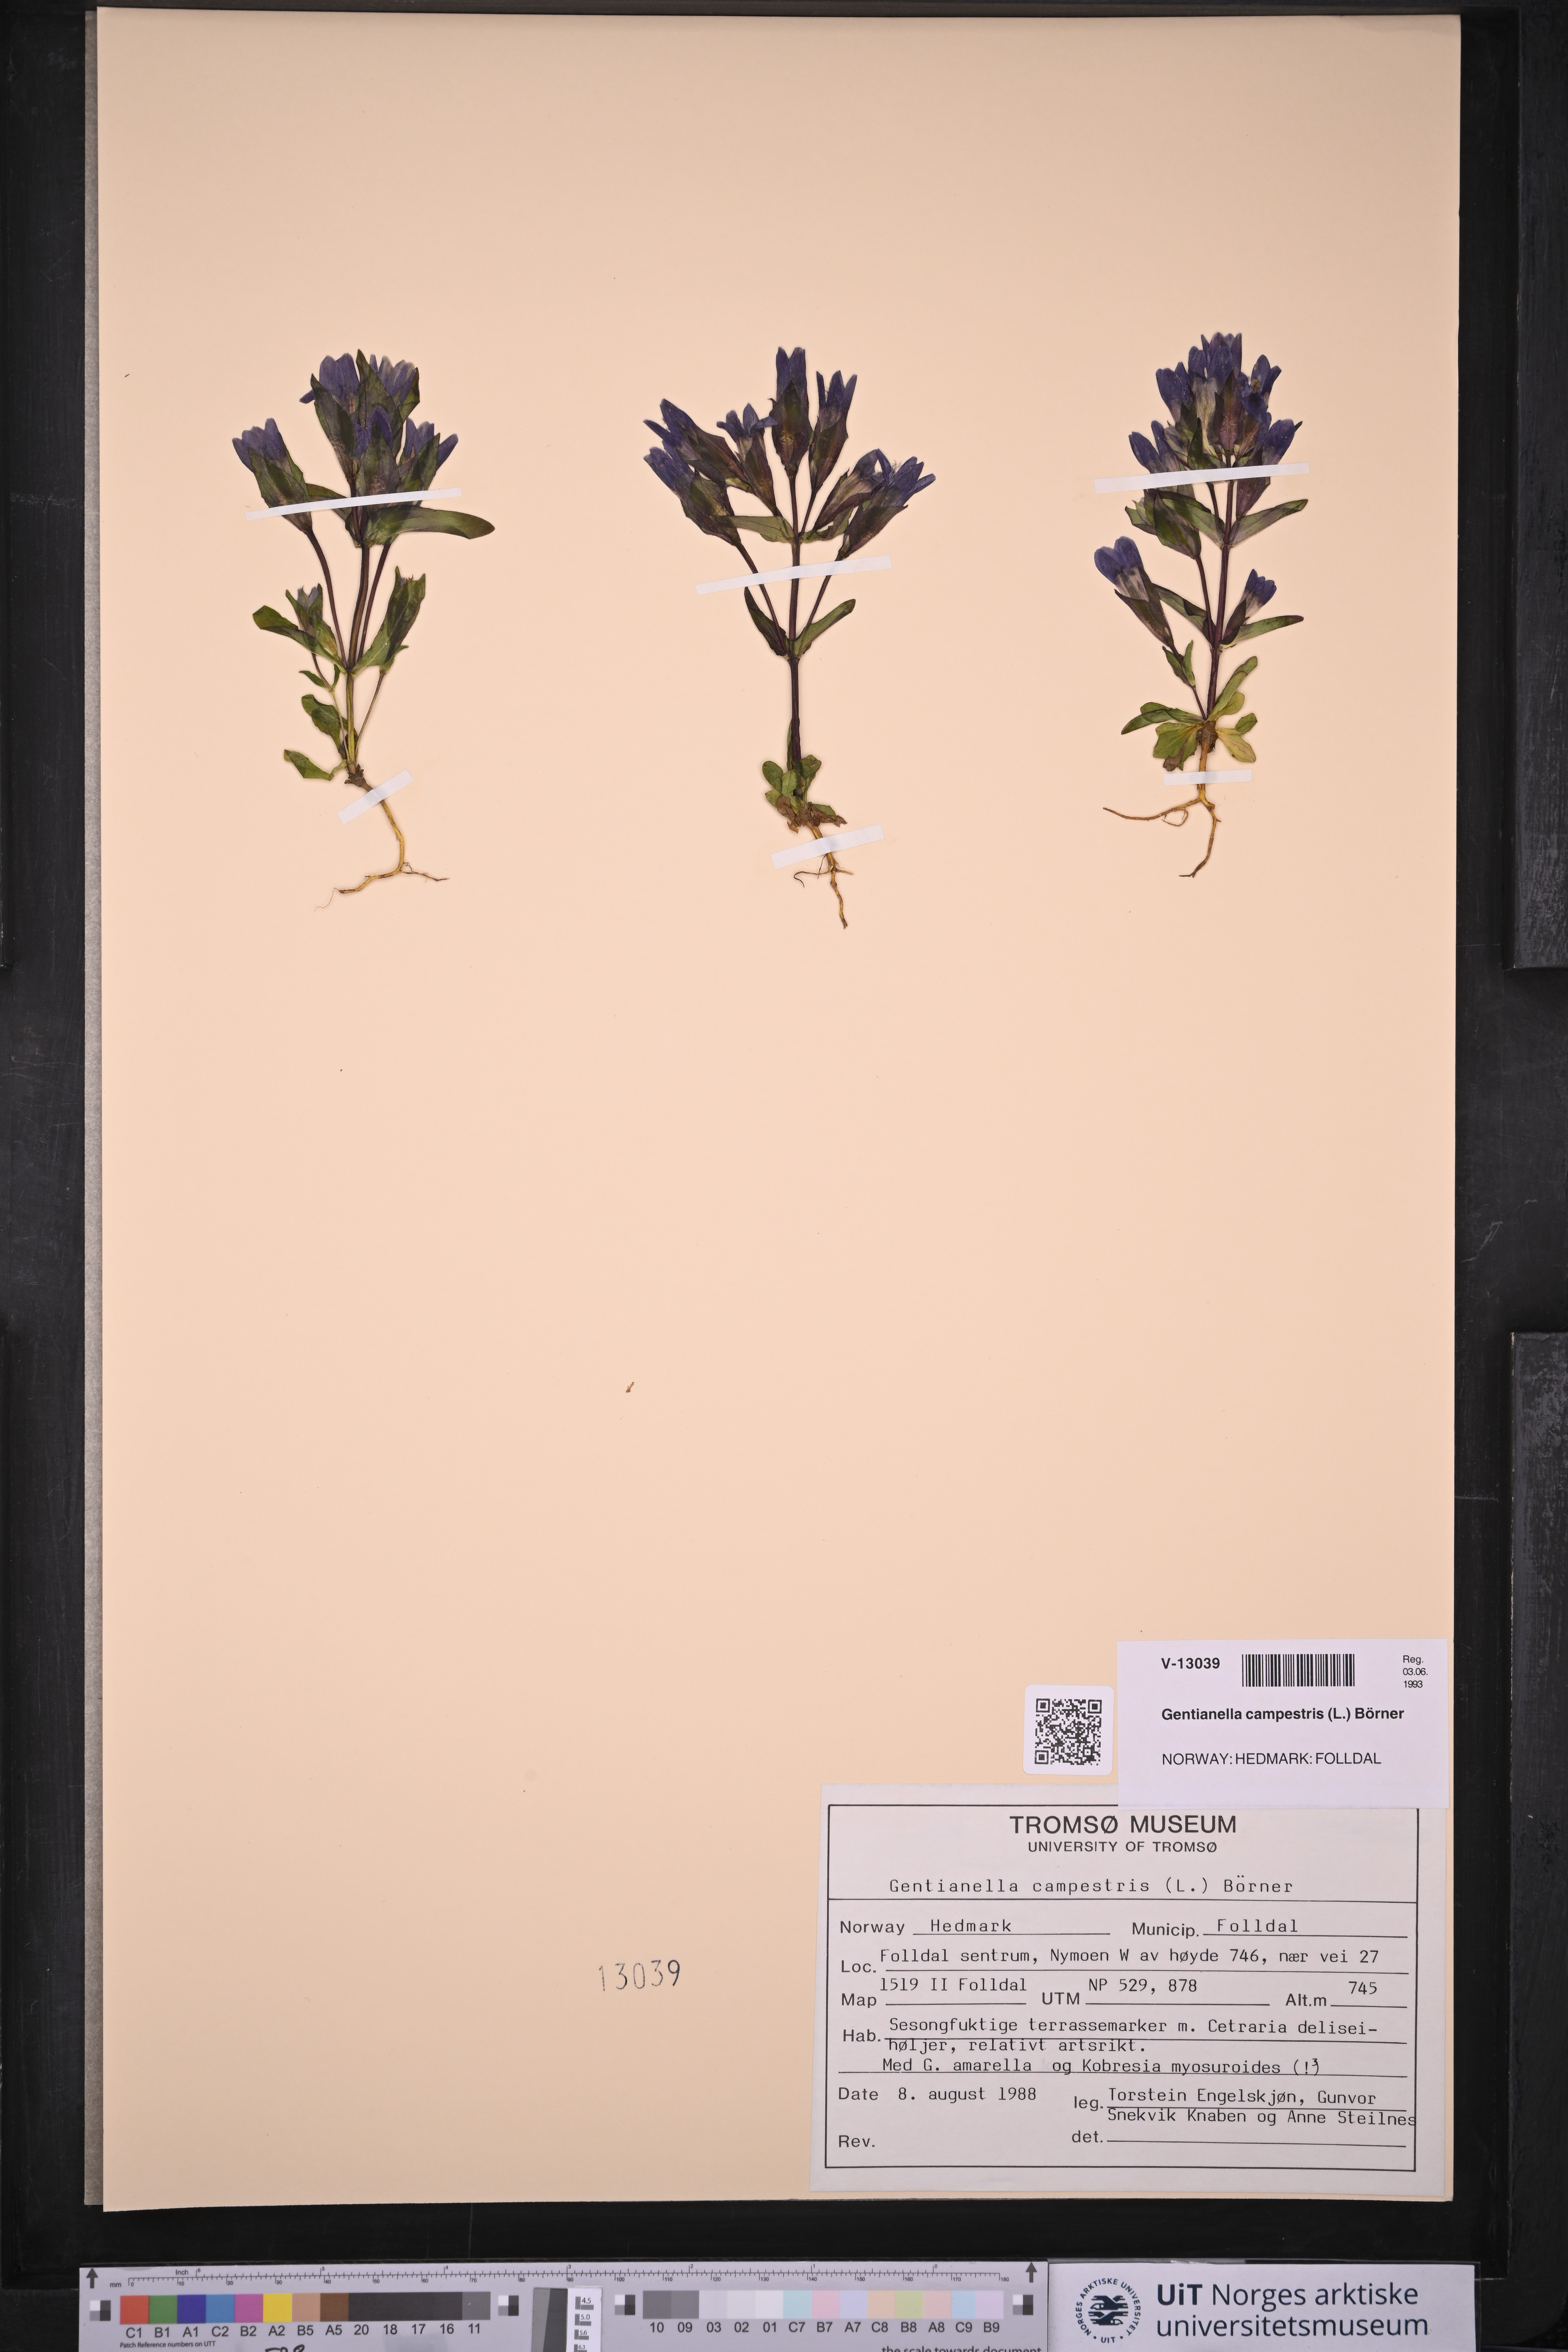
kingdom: Plantae
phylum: Tracheophyta
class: Magnoliopsida
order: Gentianales
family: Gentianaceae
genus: Gentianella
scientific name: Gentianella campestris
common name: Field gentian
